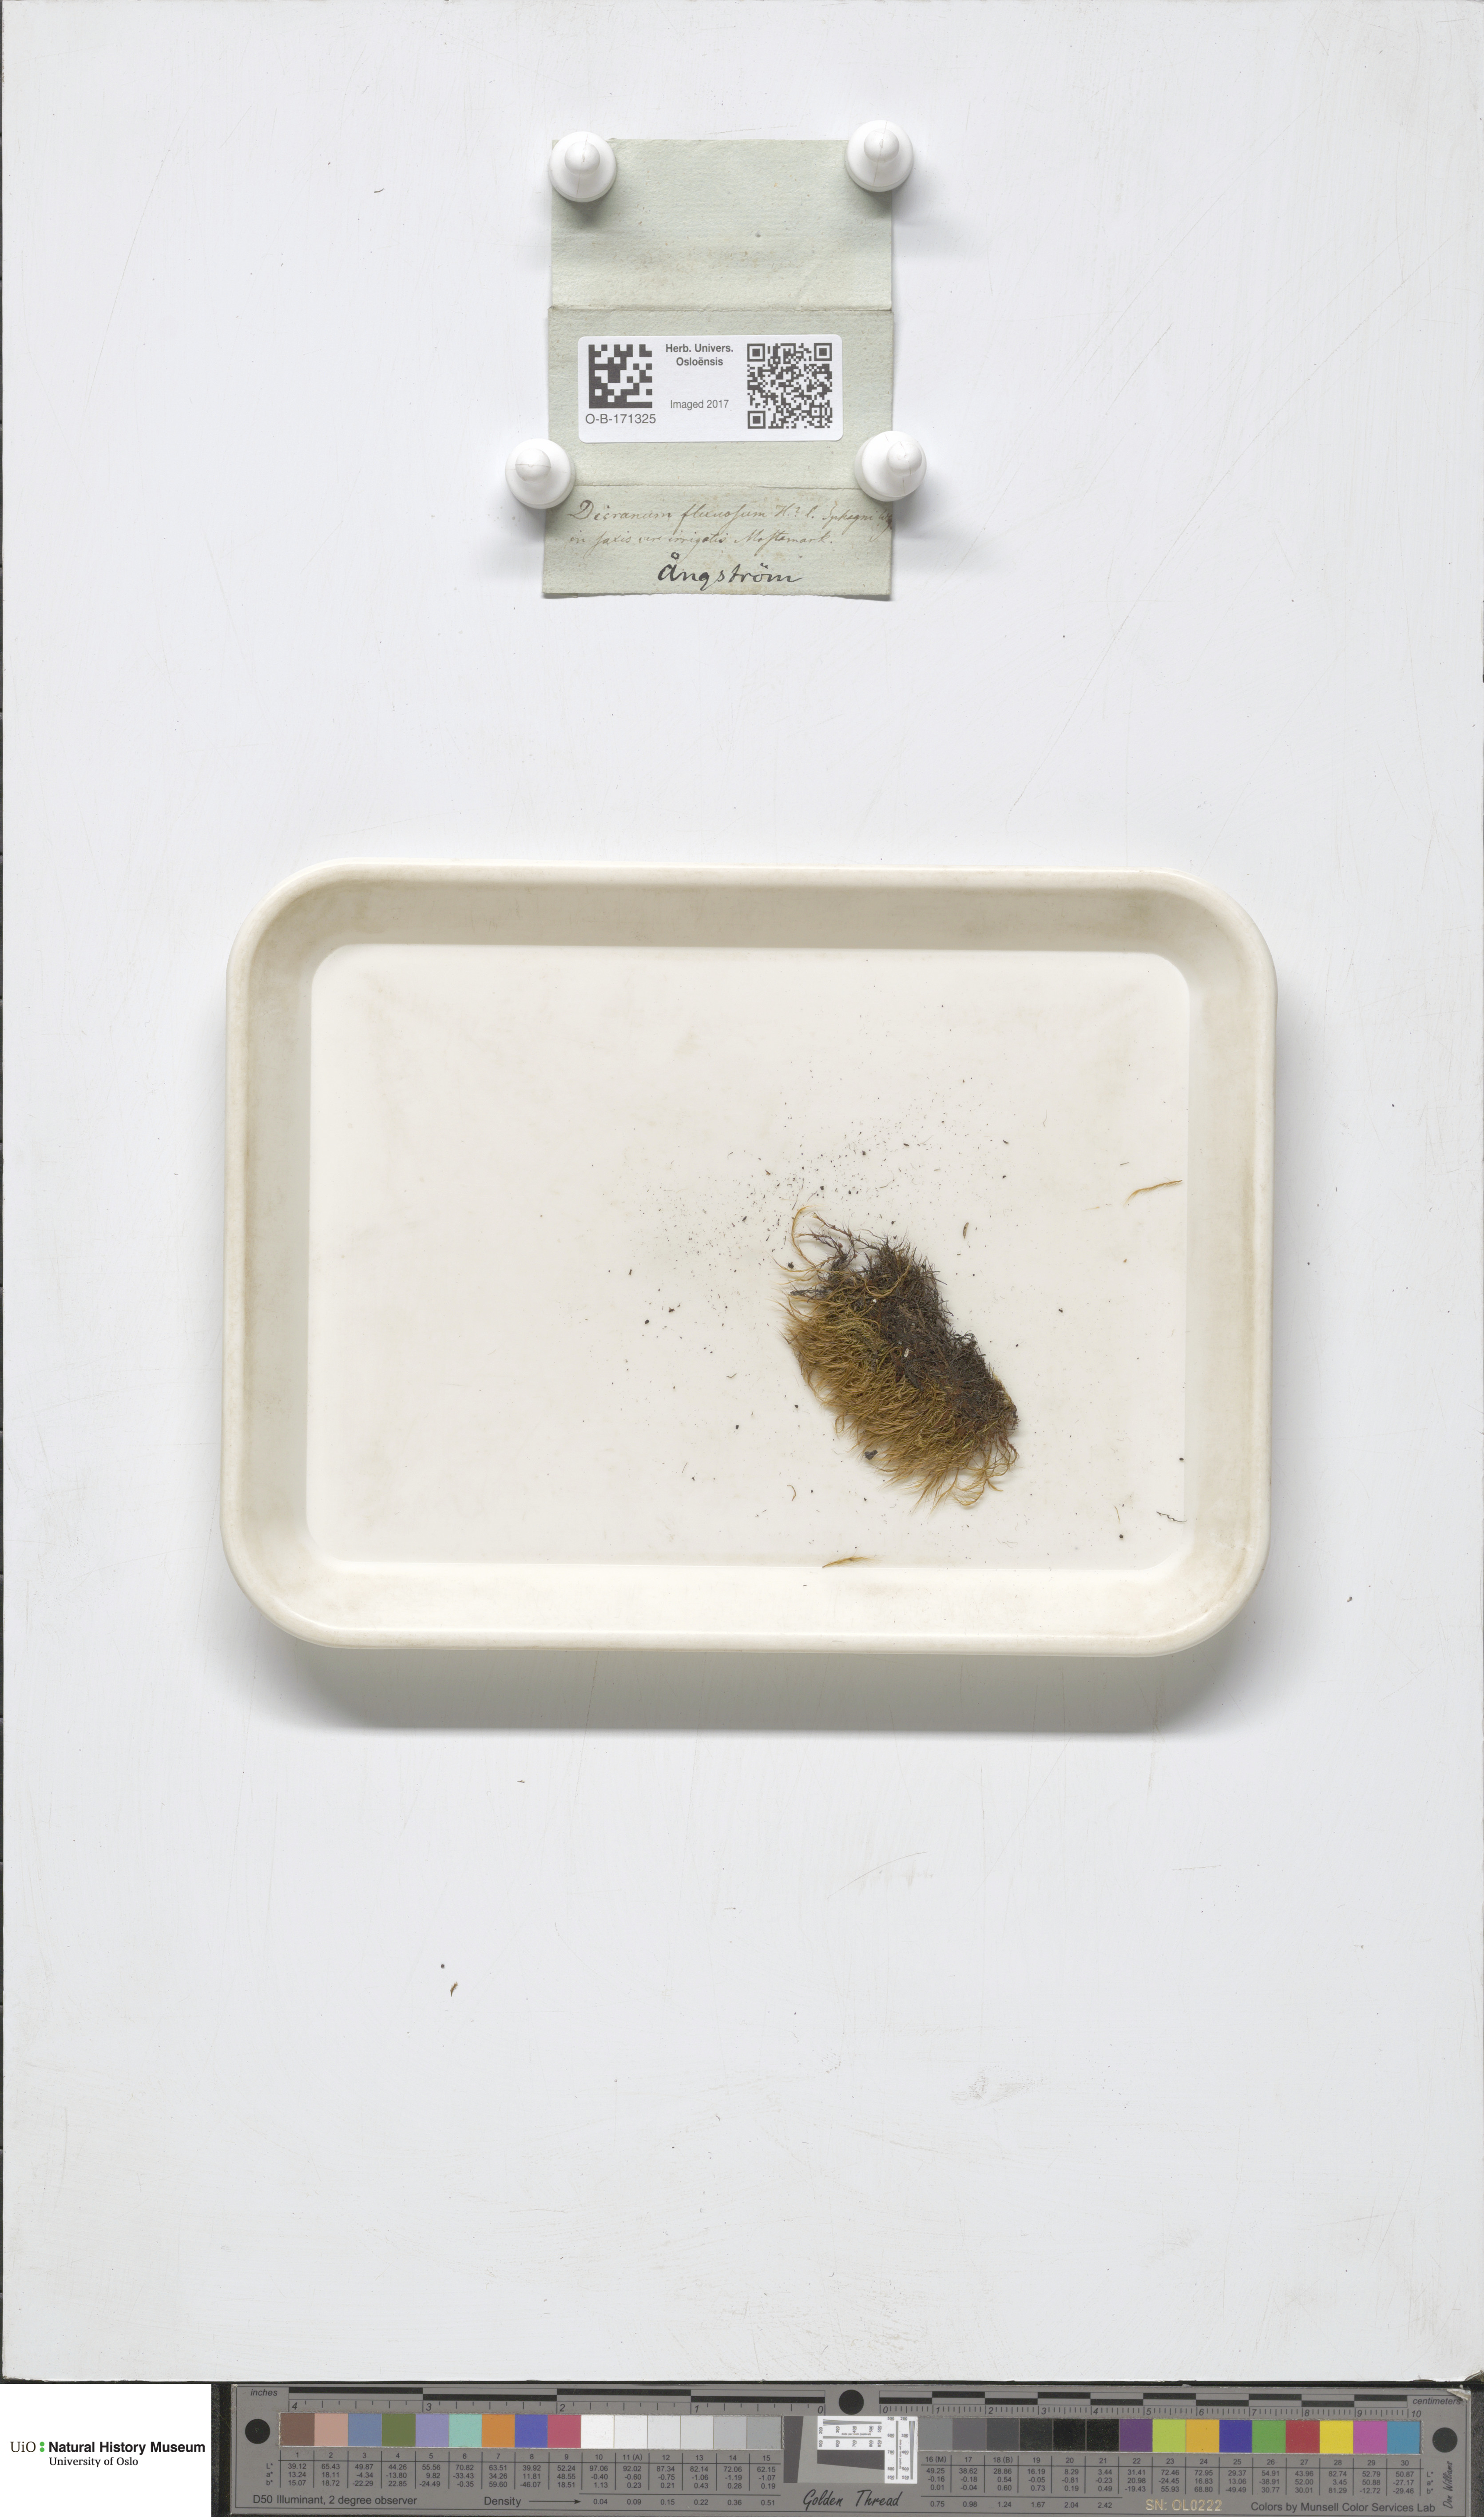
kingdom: Plantae
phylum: Bryophyta
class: Bryopsida
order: Scouleriales
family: Flexitrichaceae
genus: Flexitrichum
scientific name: Flexitrichum flexicaule
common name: Bendy ditrichum
